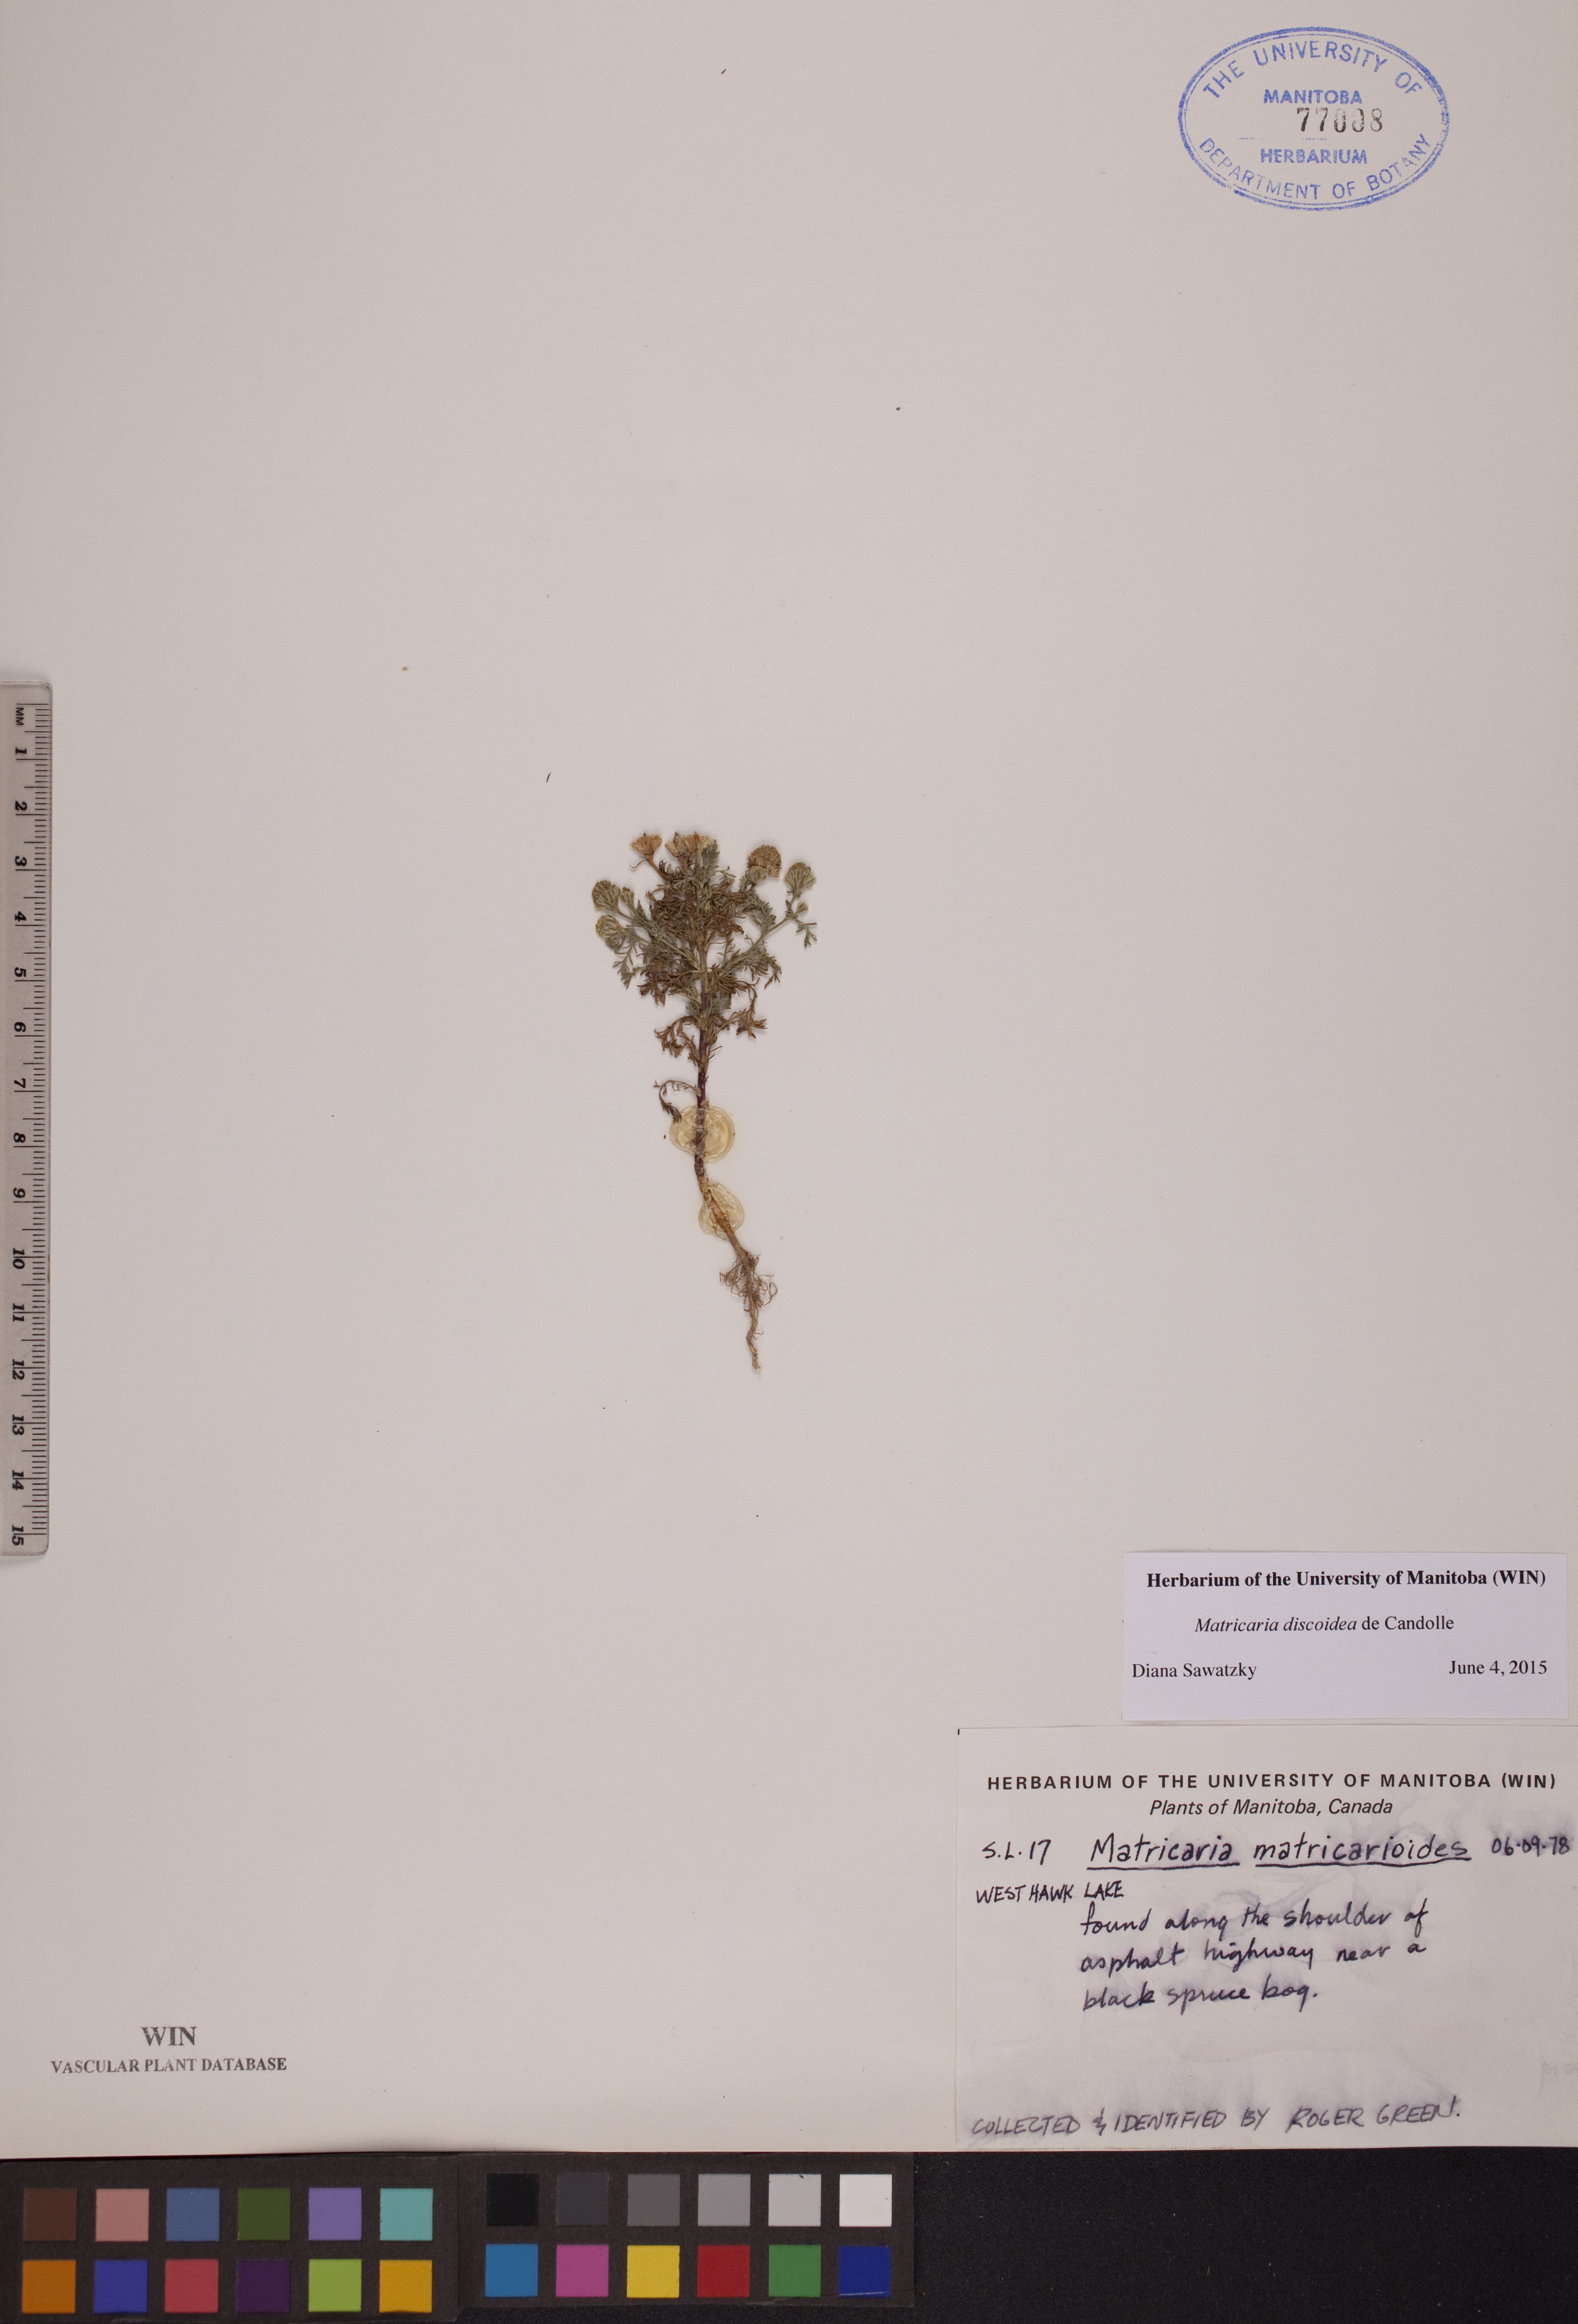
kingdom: Plantae
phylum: Tracheophyta
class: Magnoliopsida
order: Asterales
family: Asteraceae
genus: Matricaria
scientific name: Matricaria discoidea
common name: Disc mayweed
